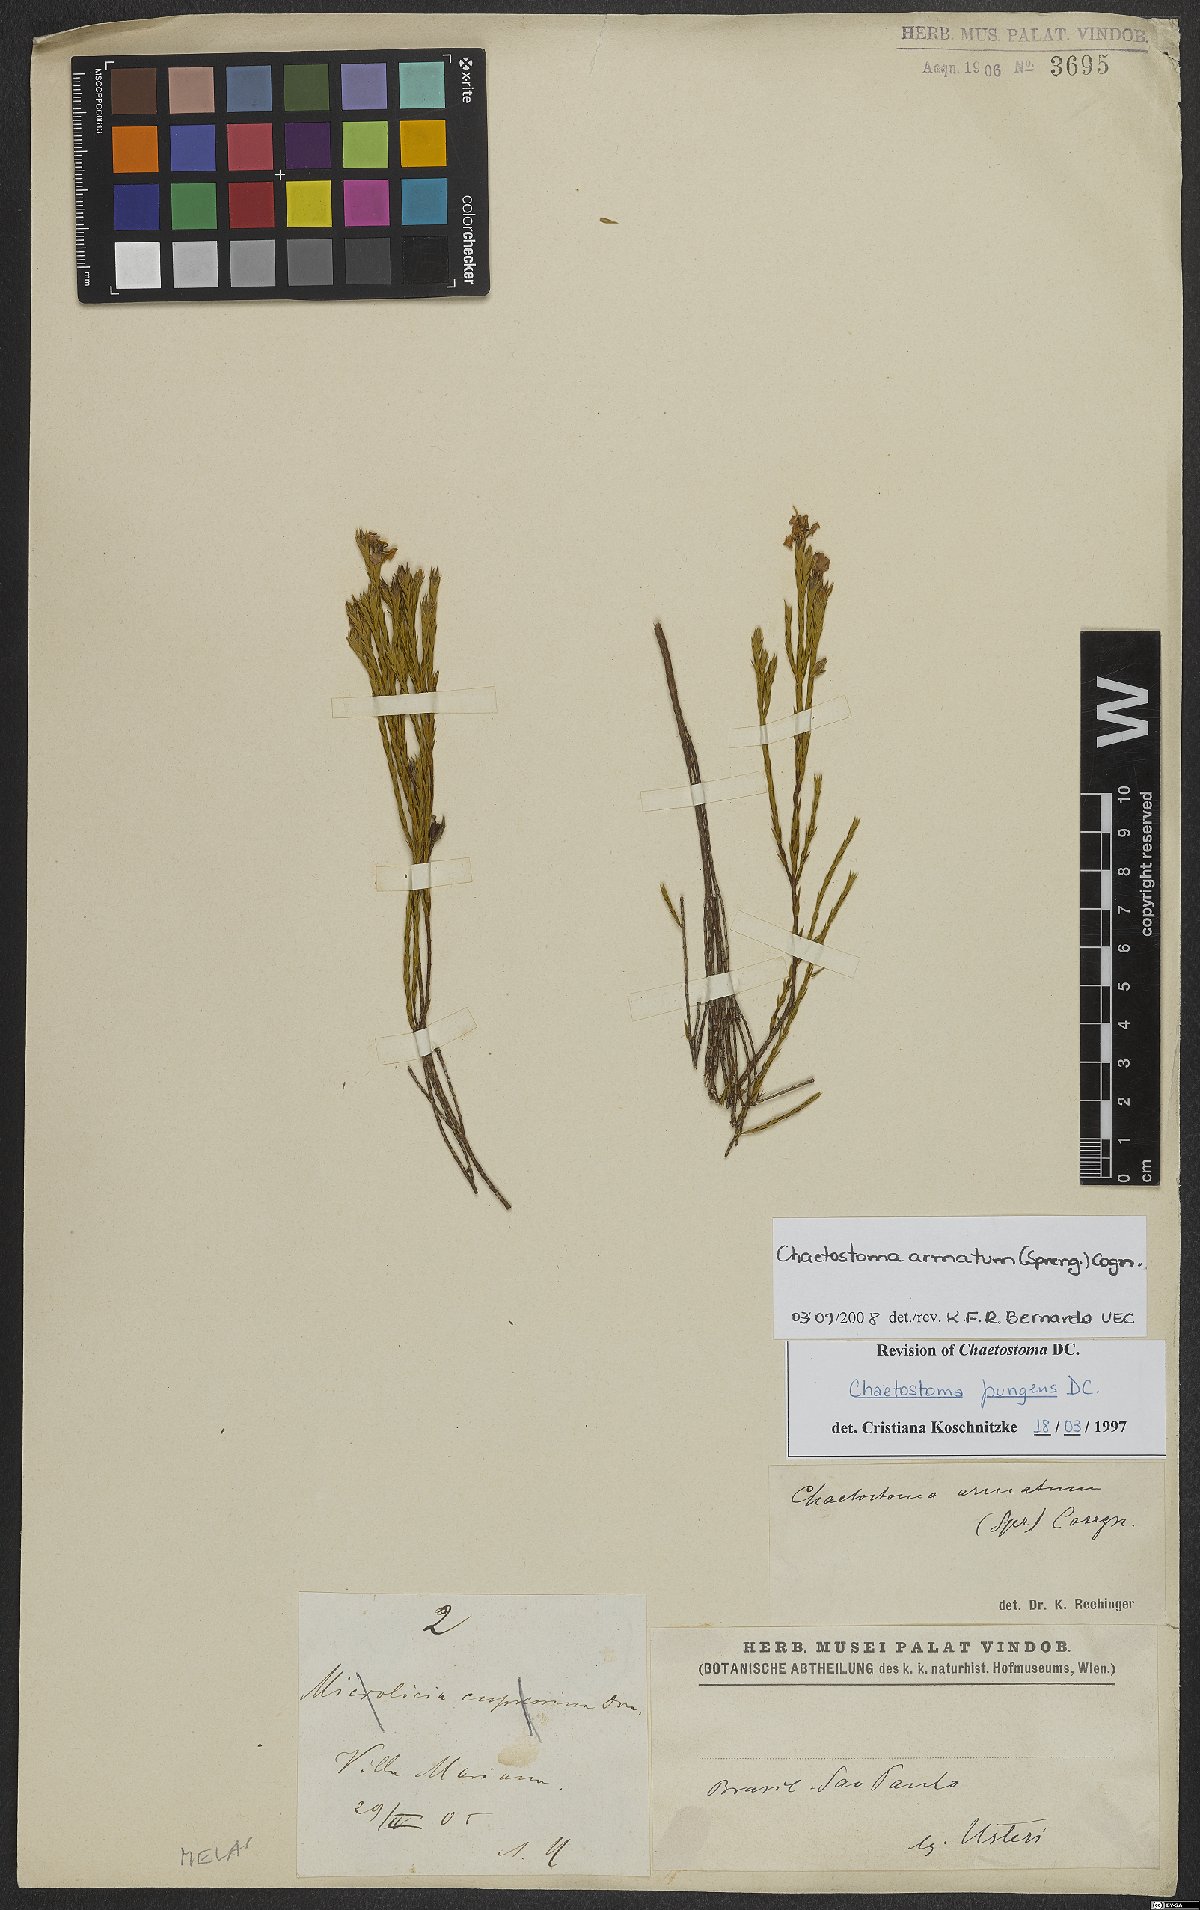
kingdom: Plantae
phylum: Tracheophyta
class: Magnoliopsida
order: Myrtales
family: Melastomataceae
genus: Microlicia
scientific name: Microlicia armata
